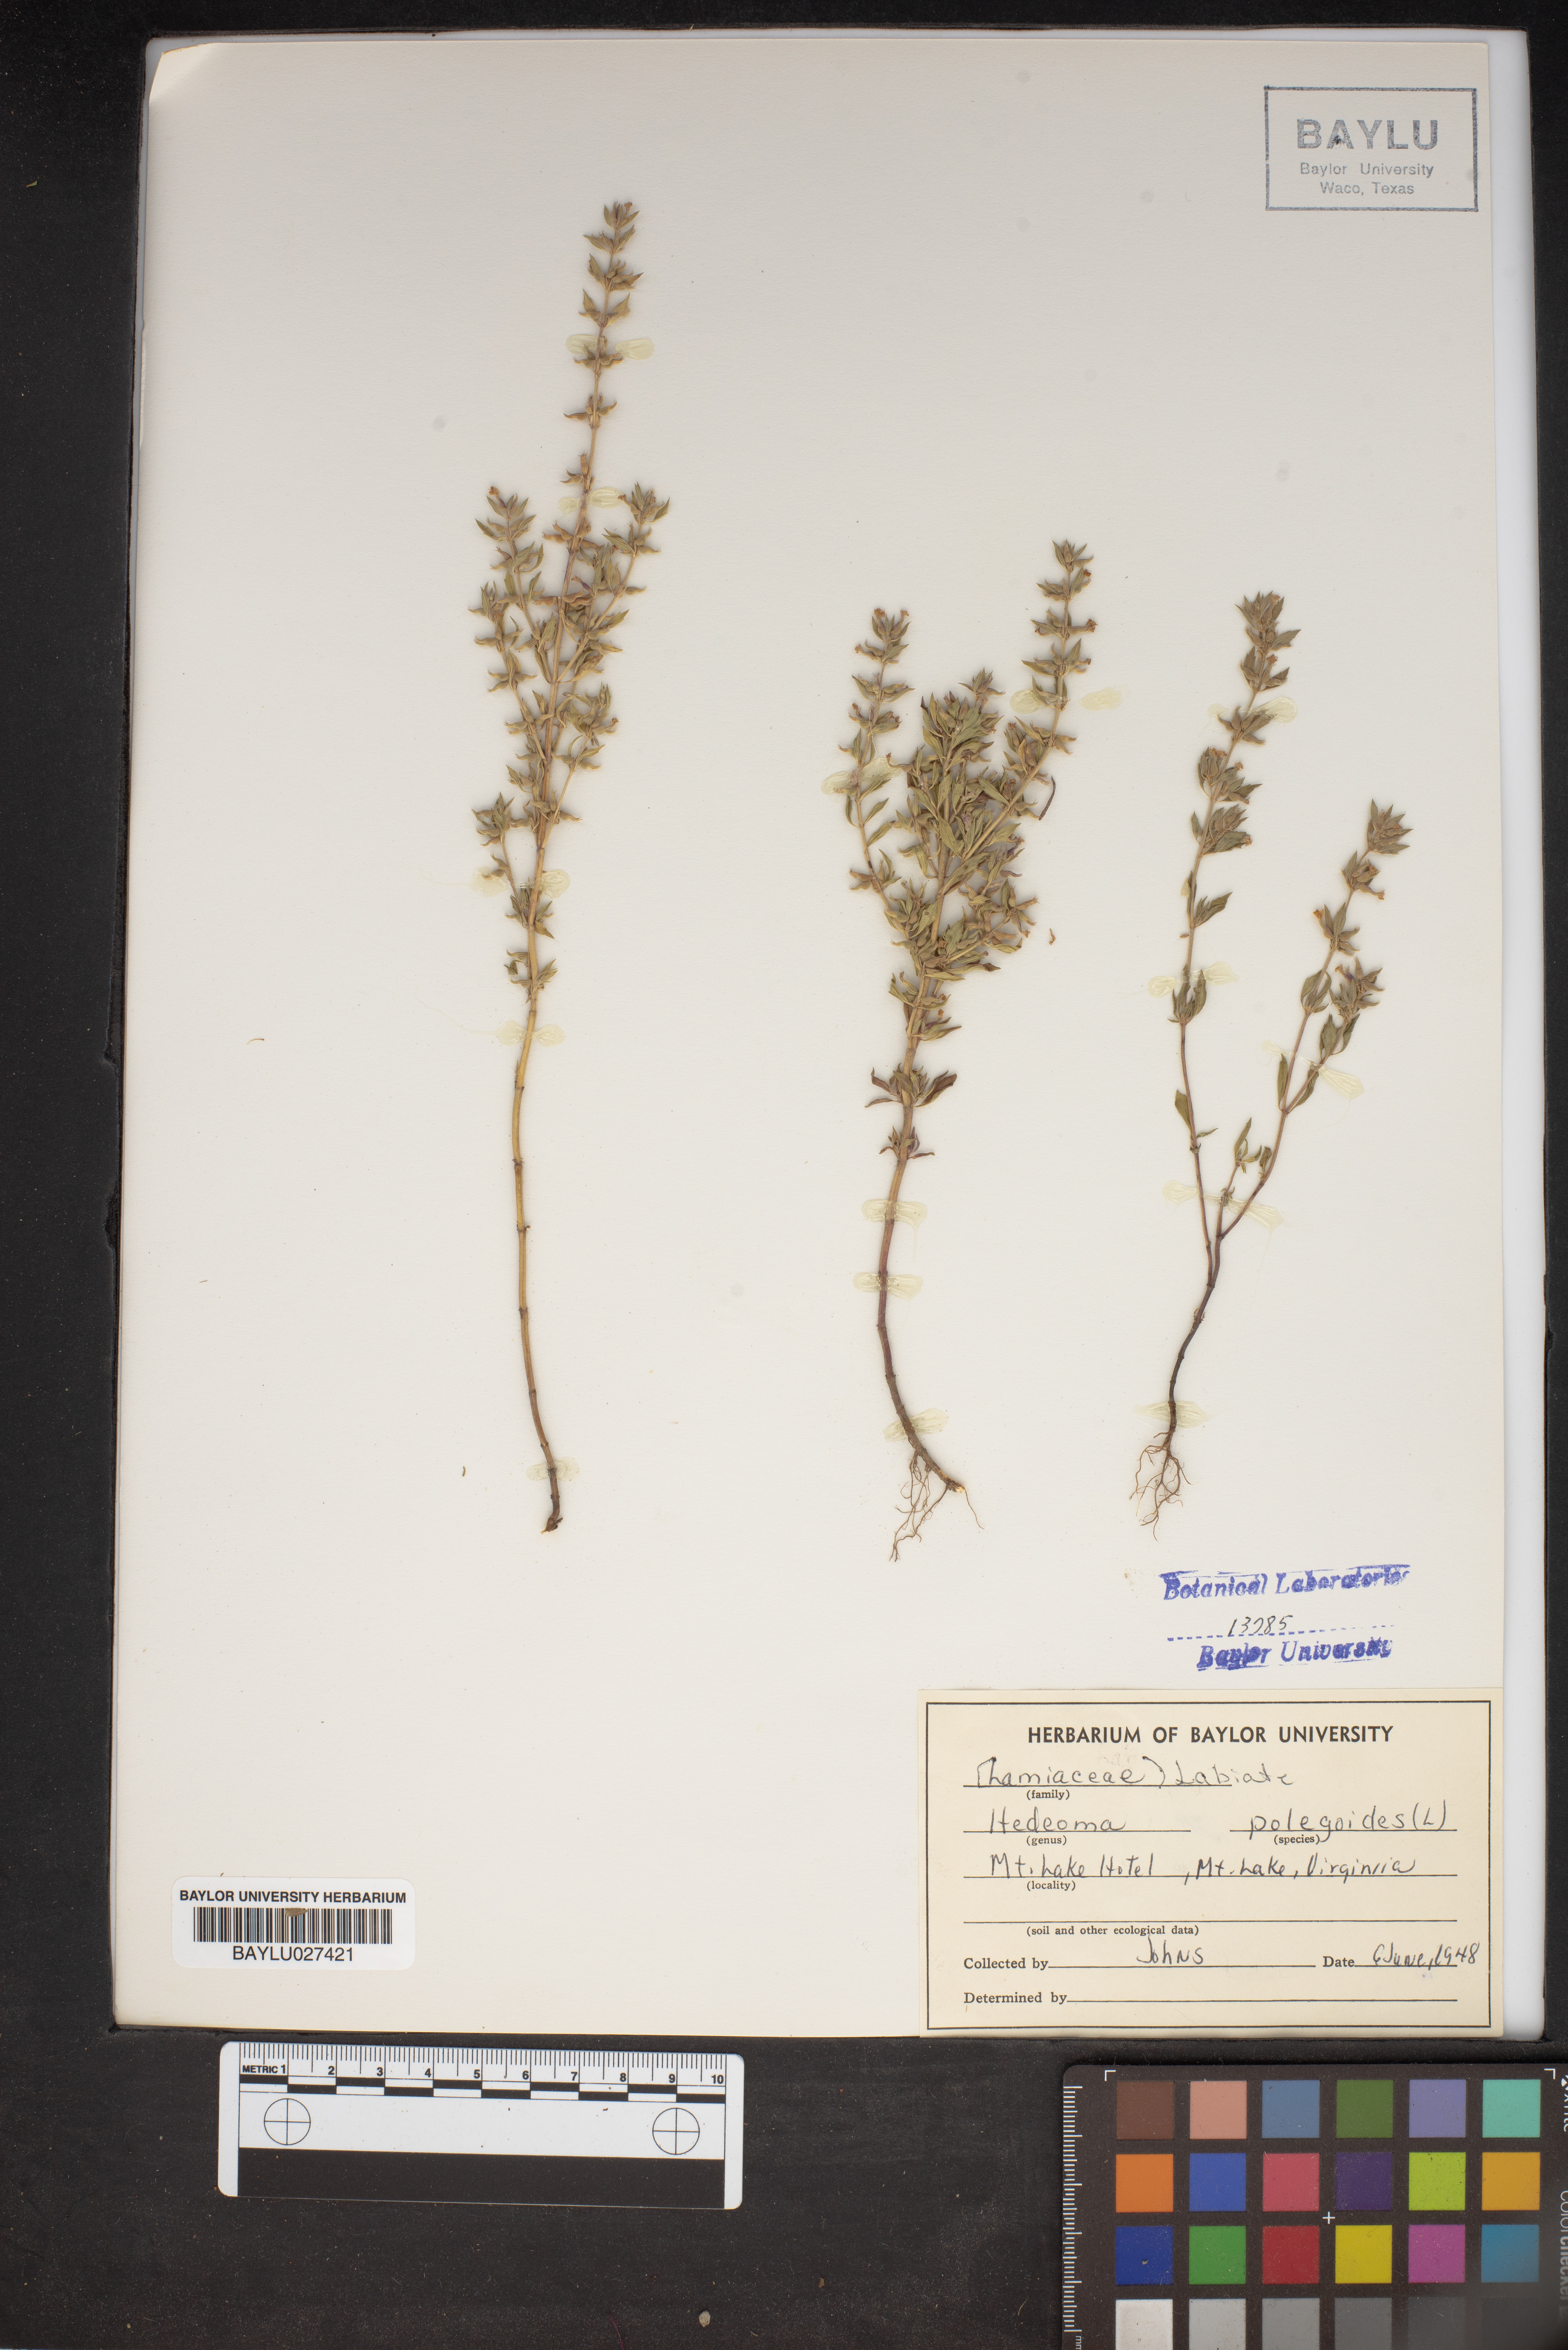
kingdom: Plantae
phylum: Tracheophyta
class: Magnoliopsida
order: Lamiales
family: Lamiaceae
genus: Hedeoma
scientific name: Hedeoma pulegioides
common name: American false pennyroyal
